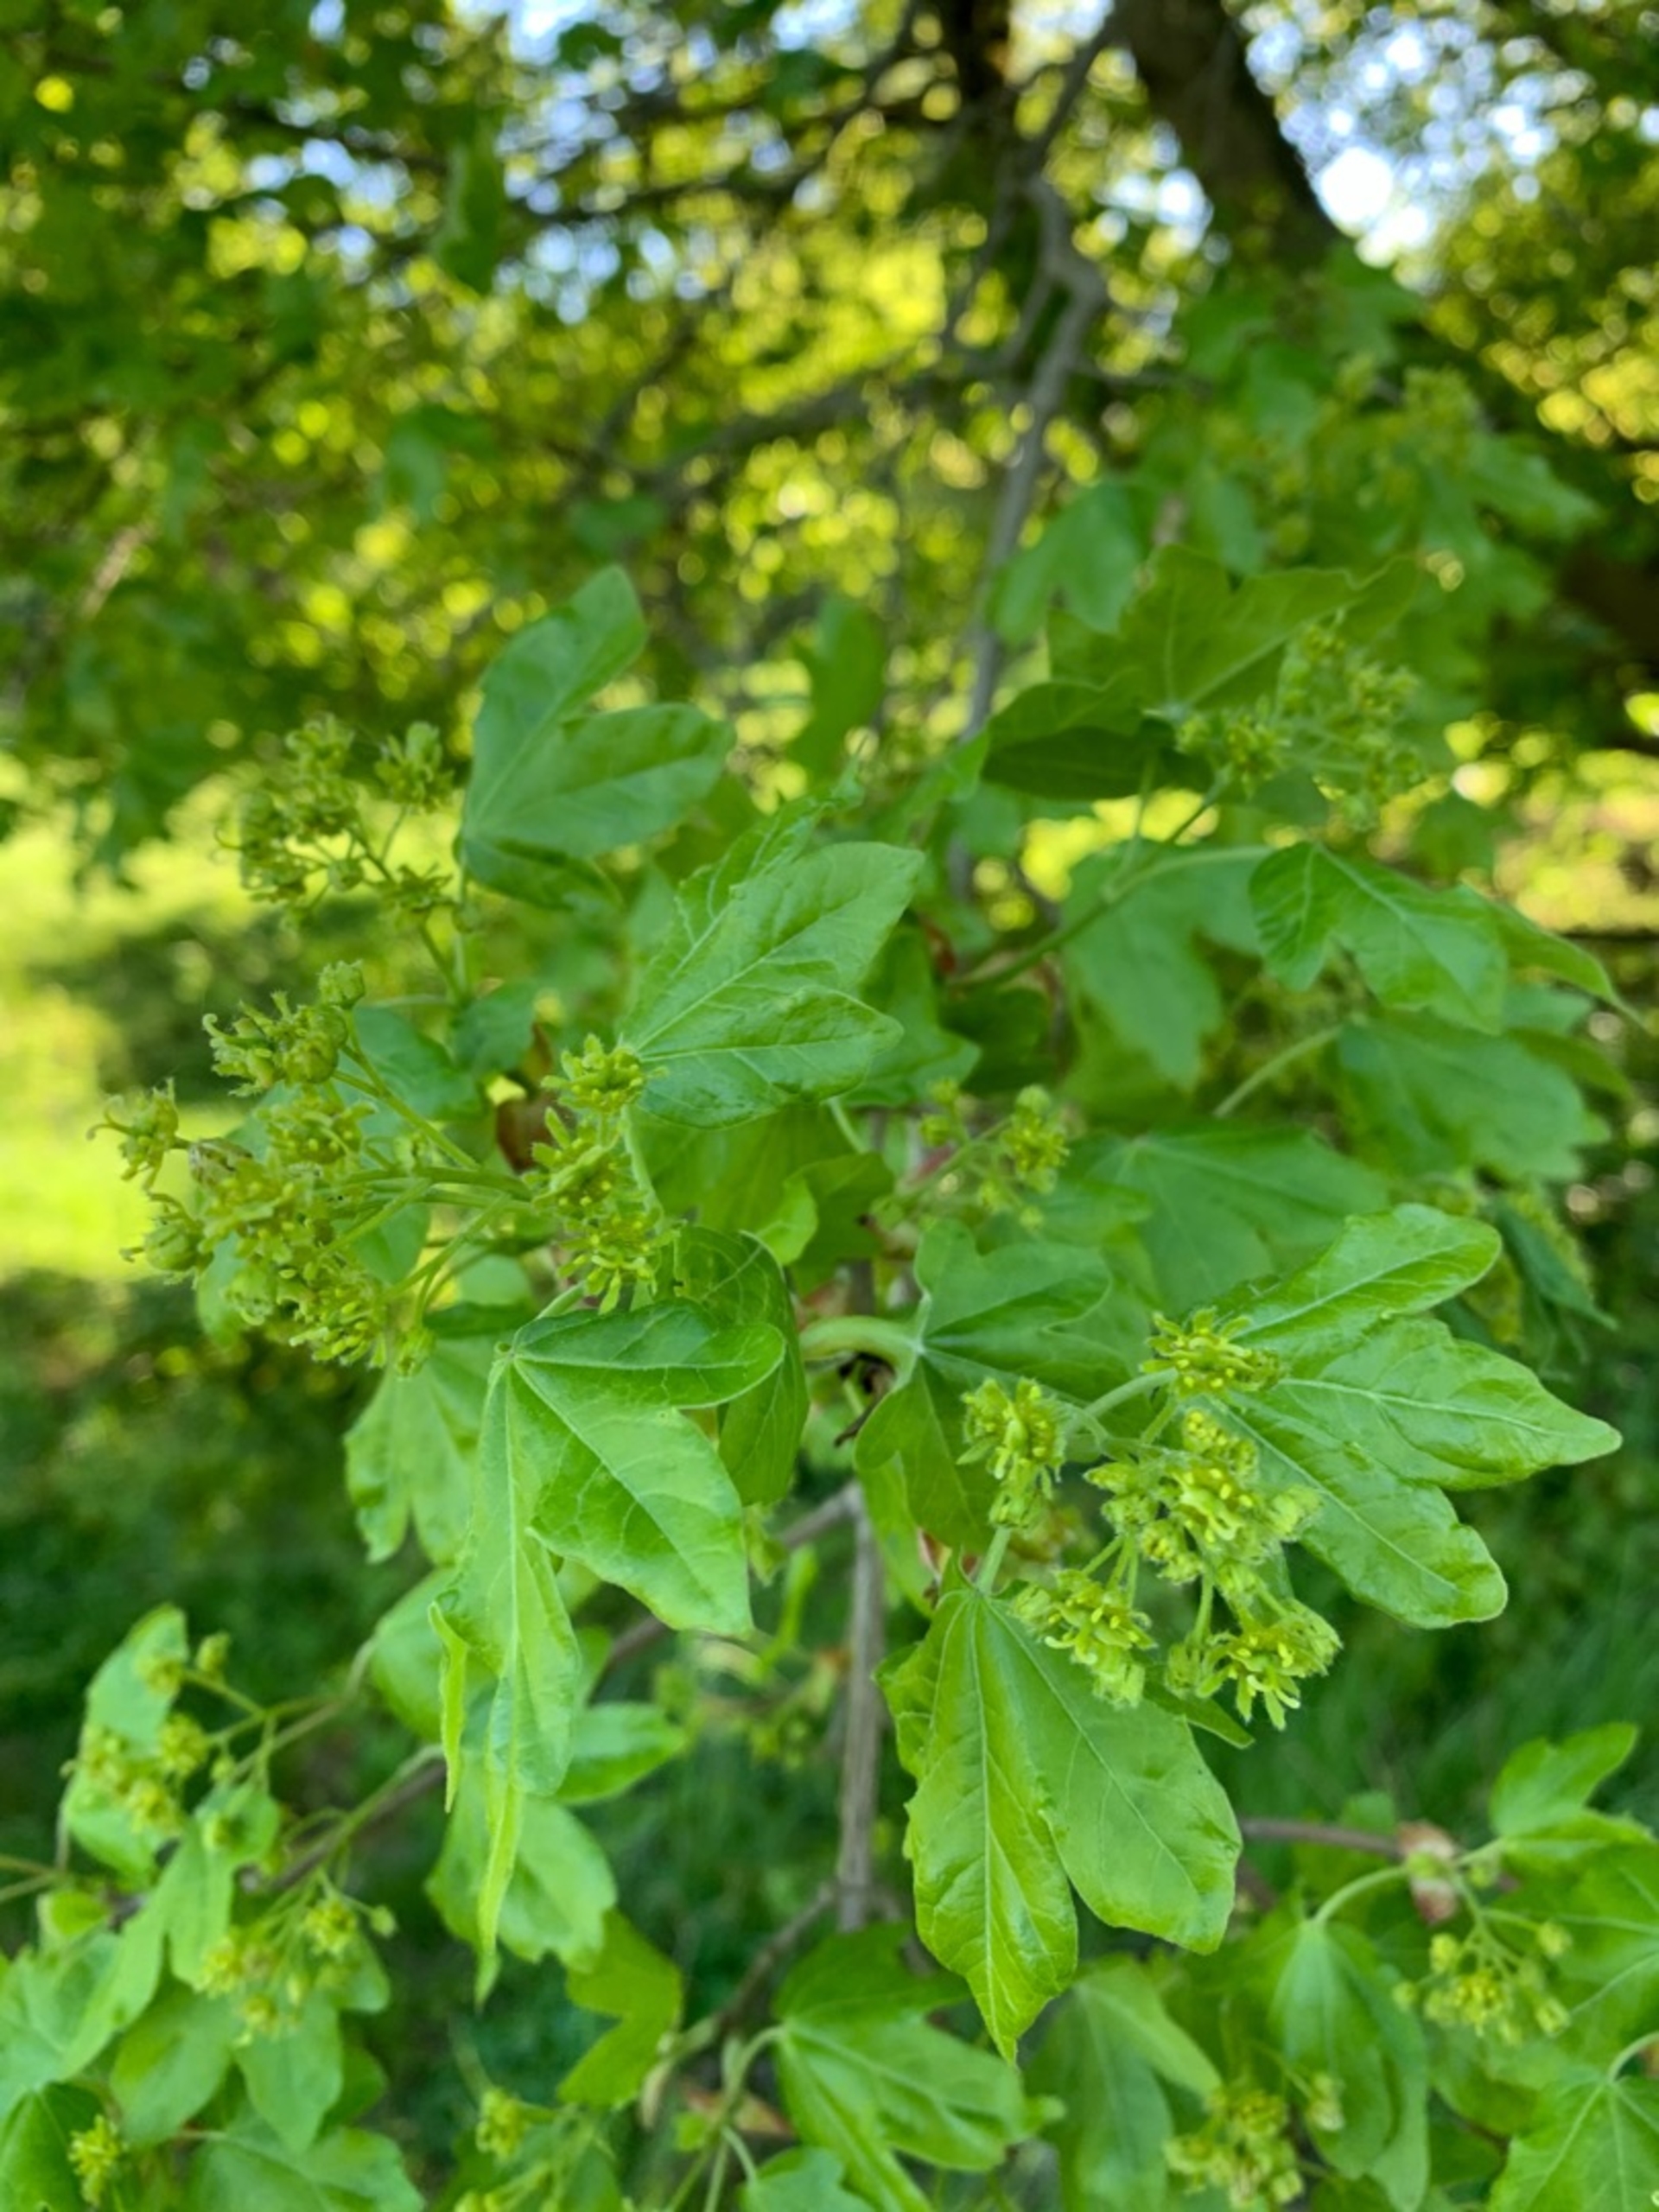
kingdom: Plantae
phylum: Tracheophyta
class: Magnoliopsida
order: Sapindales
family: Sapindaceae
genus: Acer
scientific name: Acer campestre
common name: Navr
